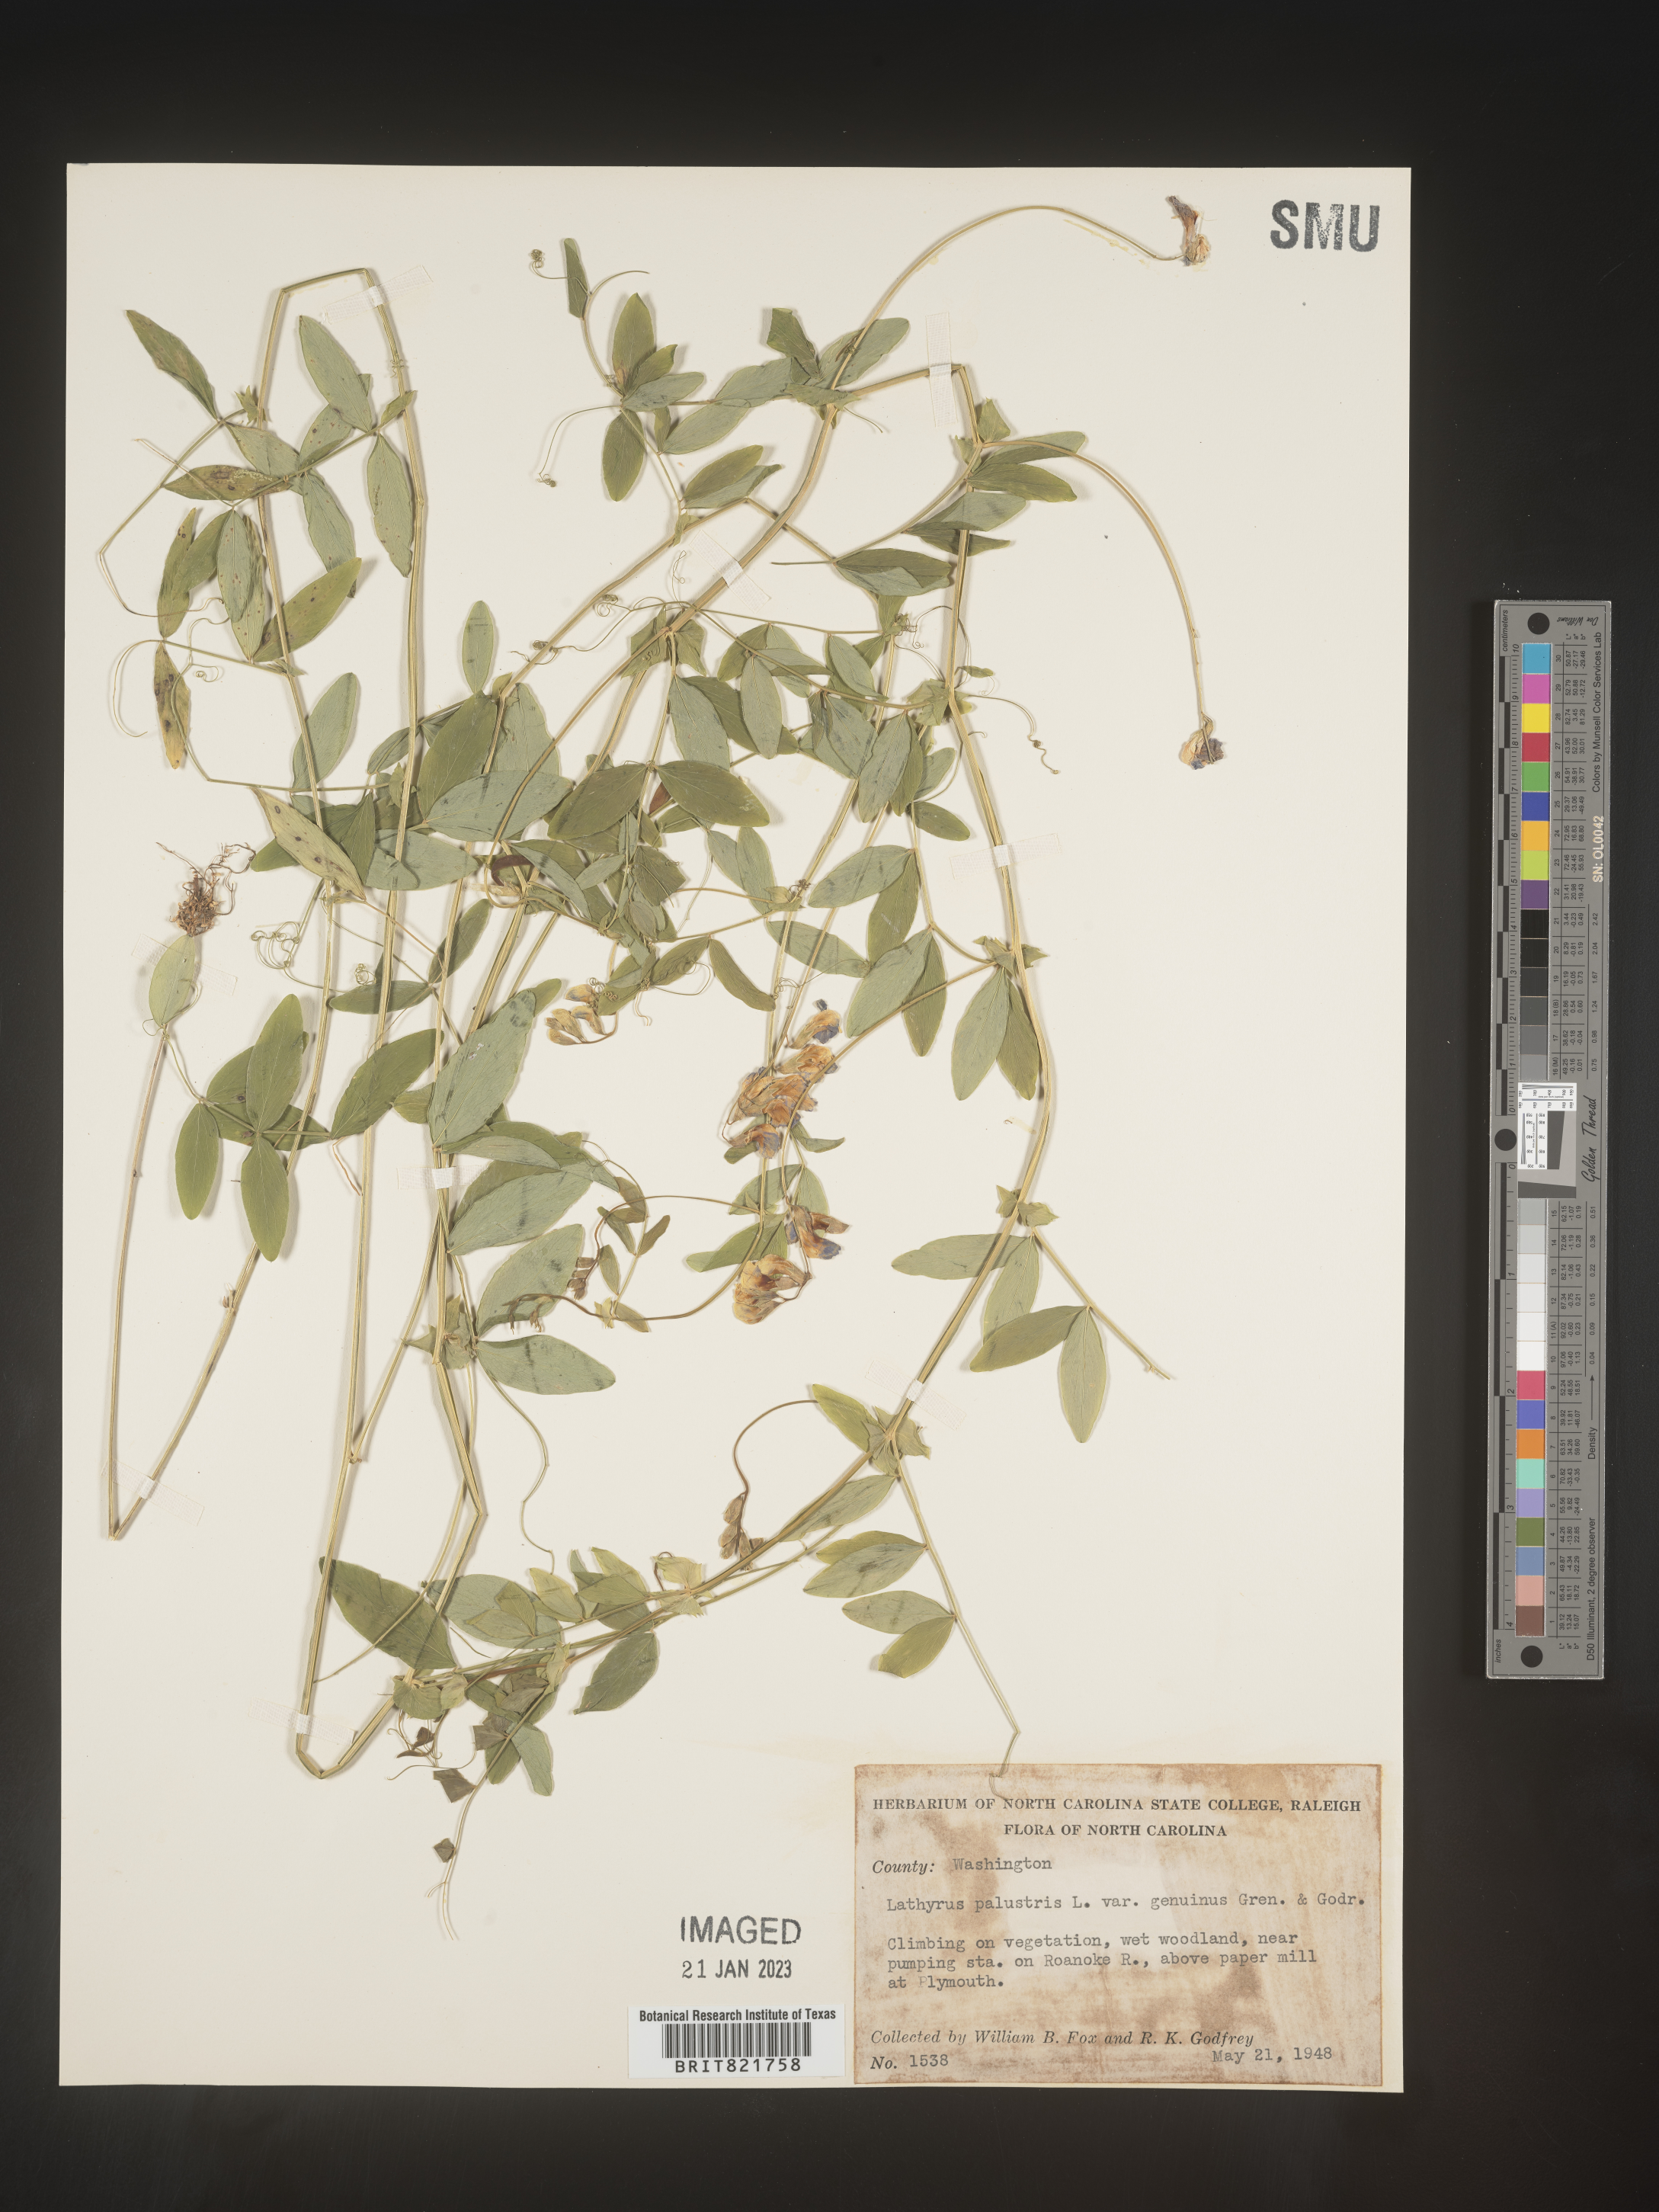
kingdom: Plantae
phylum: Tracheophyta
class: Magnoliopsida
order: Fabales
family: Fabaceae
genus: Lathyrus
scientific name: Lathyrus palustris
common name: Marsh pea
